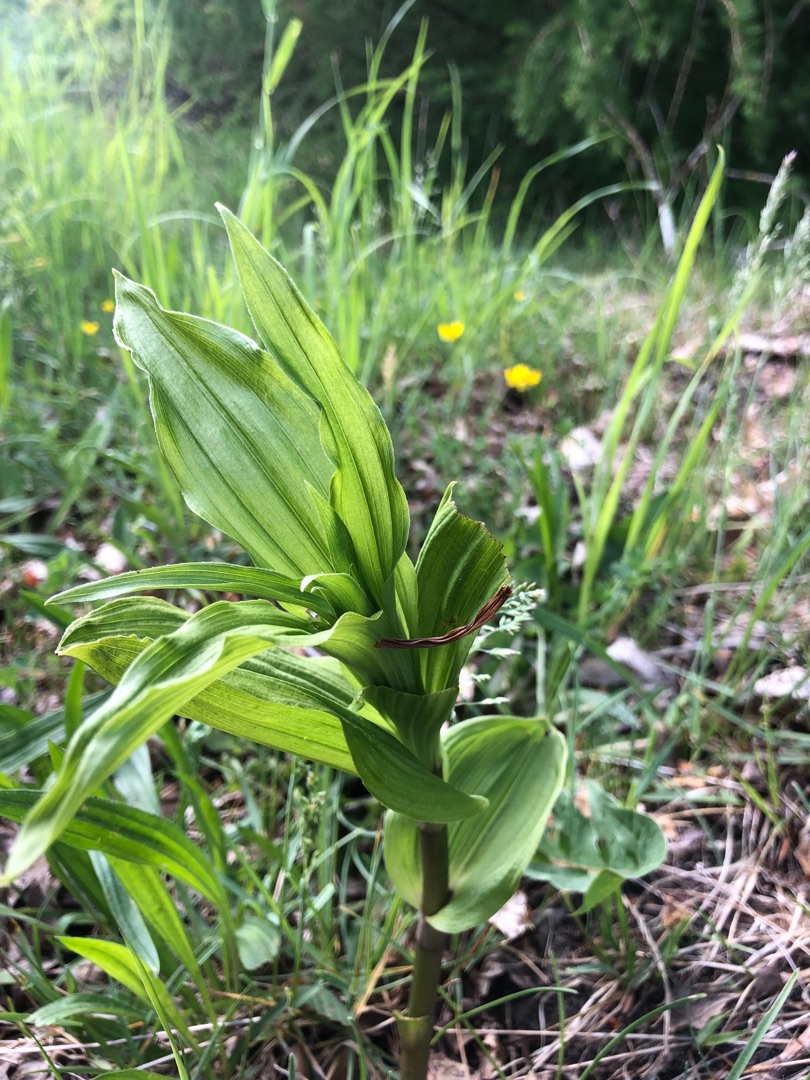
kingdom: Plantae
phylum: Tracheophyta
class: Liliopsida
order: Asparagales
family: Orchidaceae
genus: Epipactis
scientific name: Epipactis helleborine
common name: Skov-hullæbe
